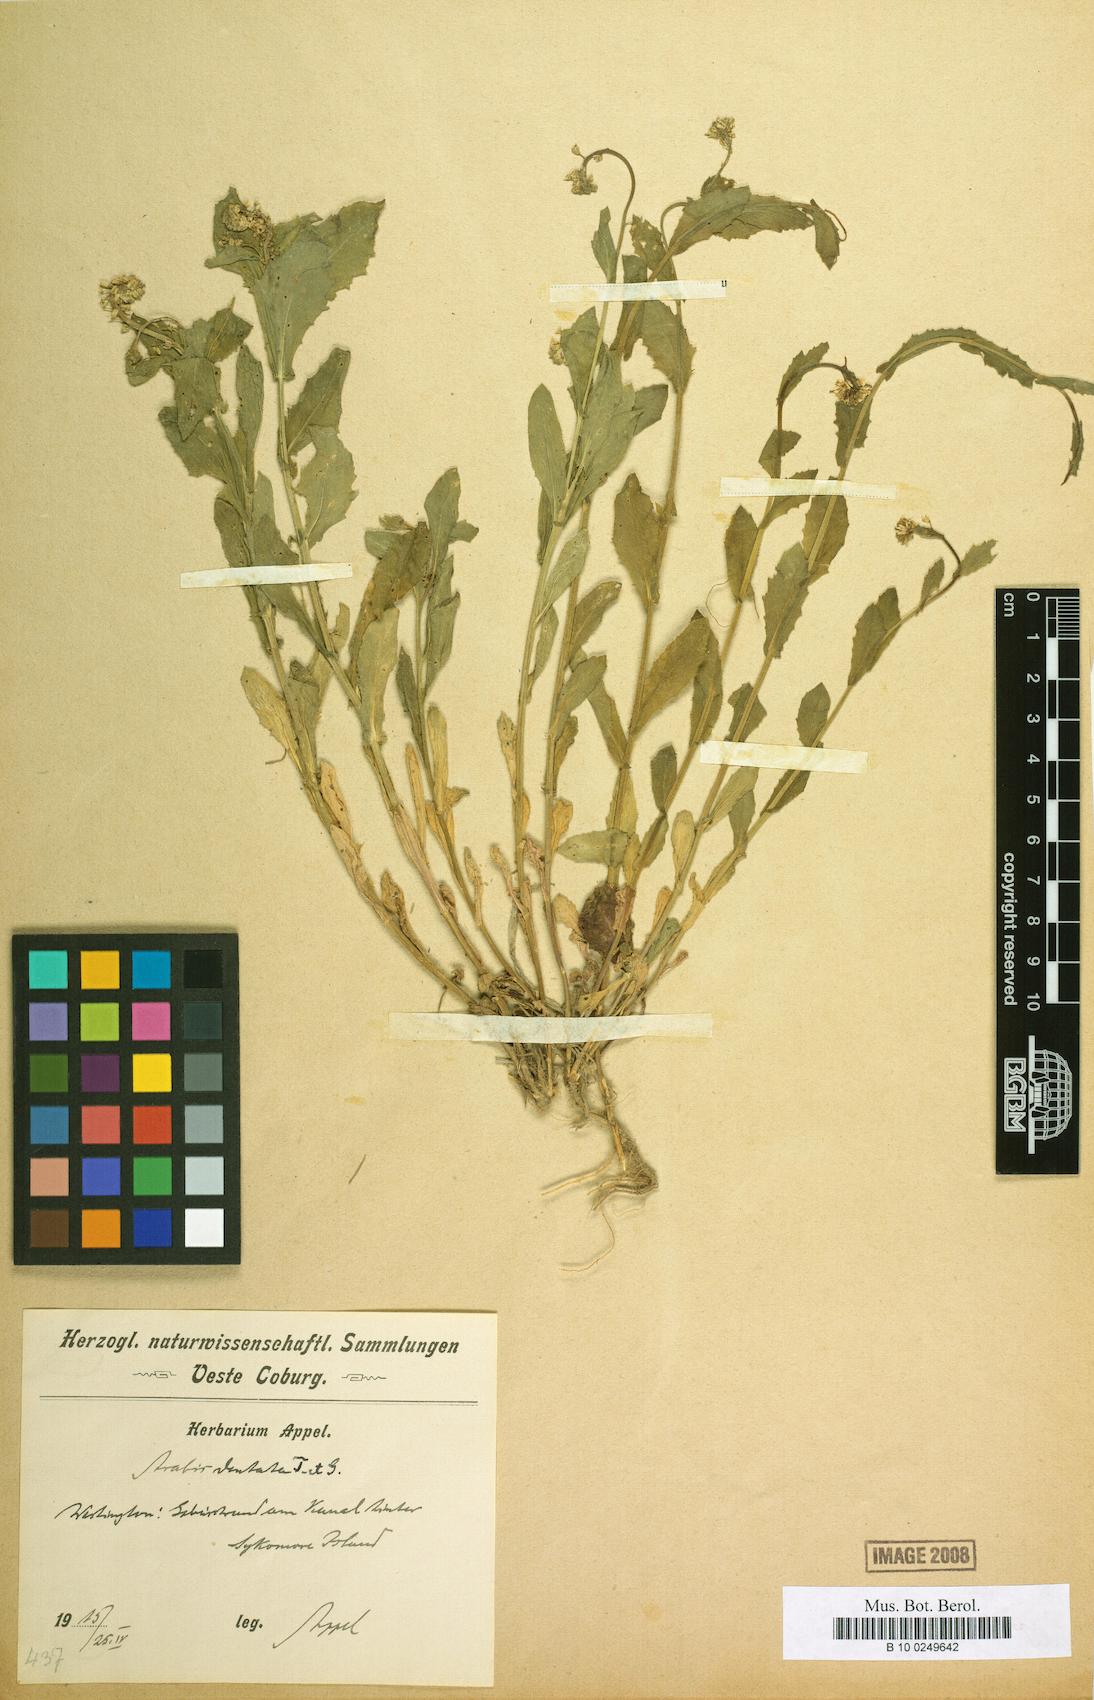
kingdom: Plantae
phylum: Tracheophyta
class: Magnoliopsida
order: Brassicales
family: Brassicaceae
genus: Borodinia
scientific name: Borodinia dentata
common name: Short's rockcress
